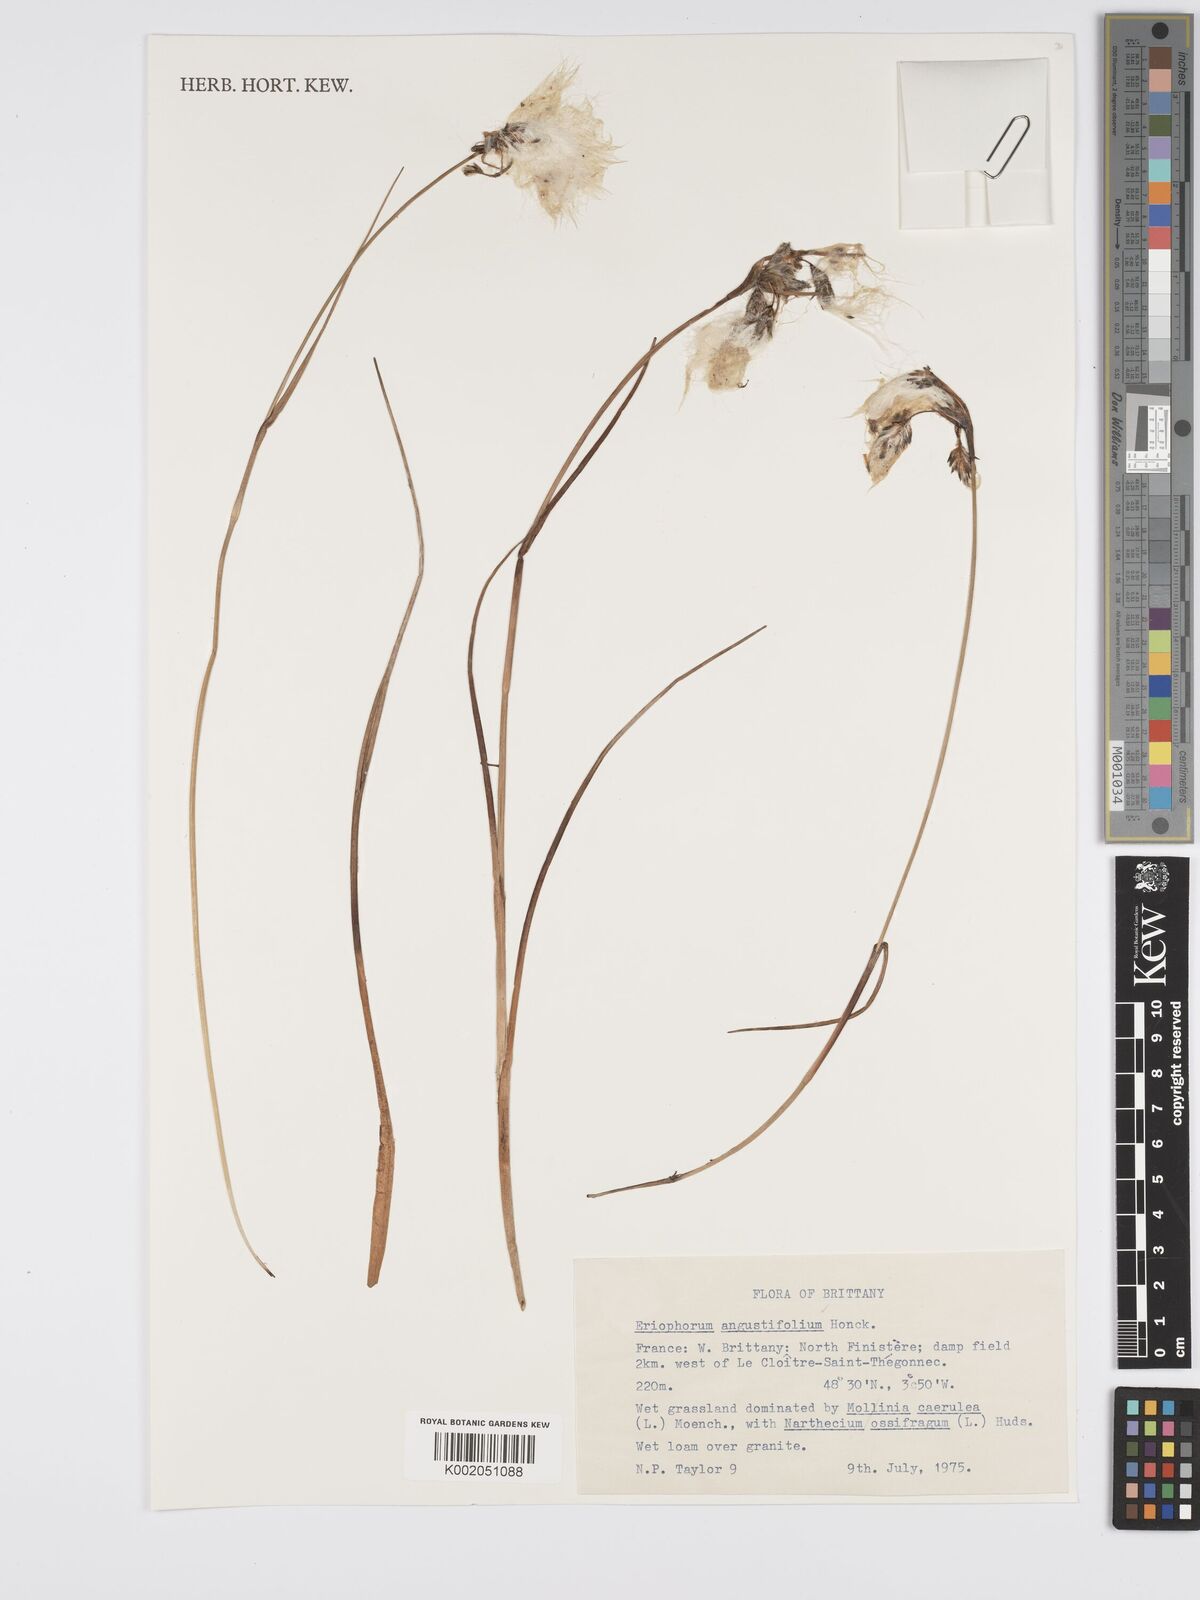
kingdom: Plantae
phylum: Tracheophyta
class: Liliopsida
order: Poales
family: Cyperaceae
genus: Eriophorum
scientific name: Eriophorum angustifolium
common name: Common cottongrass
